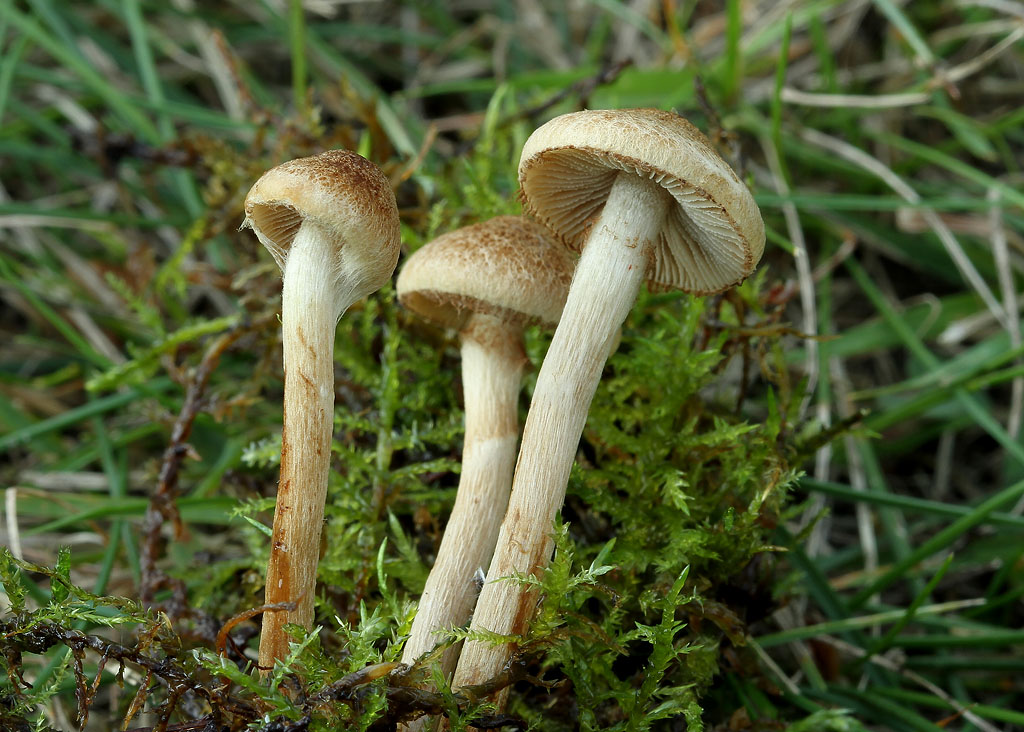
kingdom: Fungi
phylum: Basidiomycota
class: Agaricomycetes
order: Agaricales
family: Inocybaceae
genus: Inocybe
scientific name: Inocybe dulcamara
